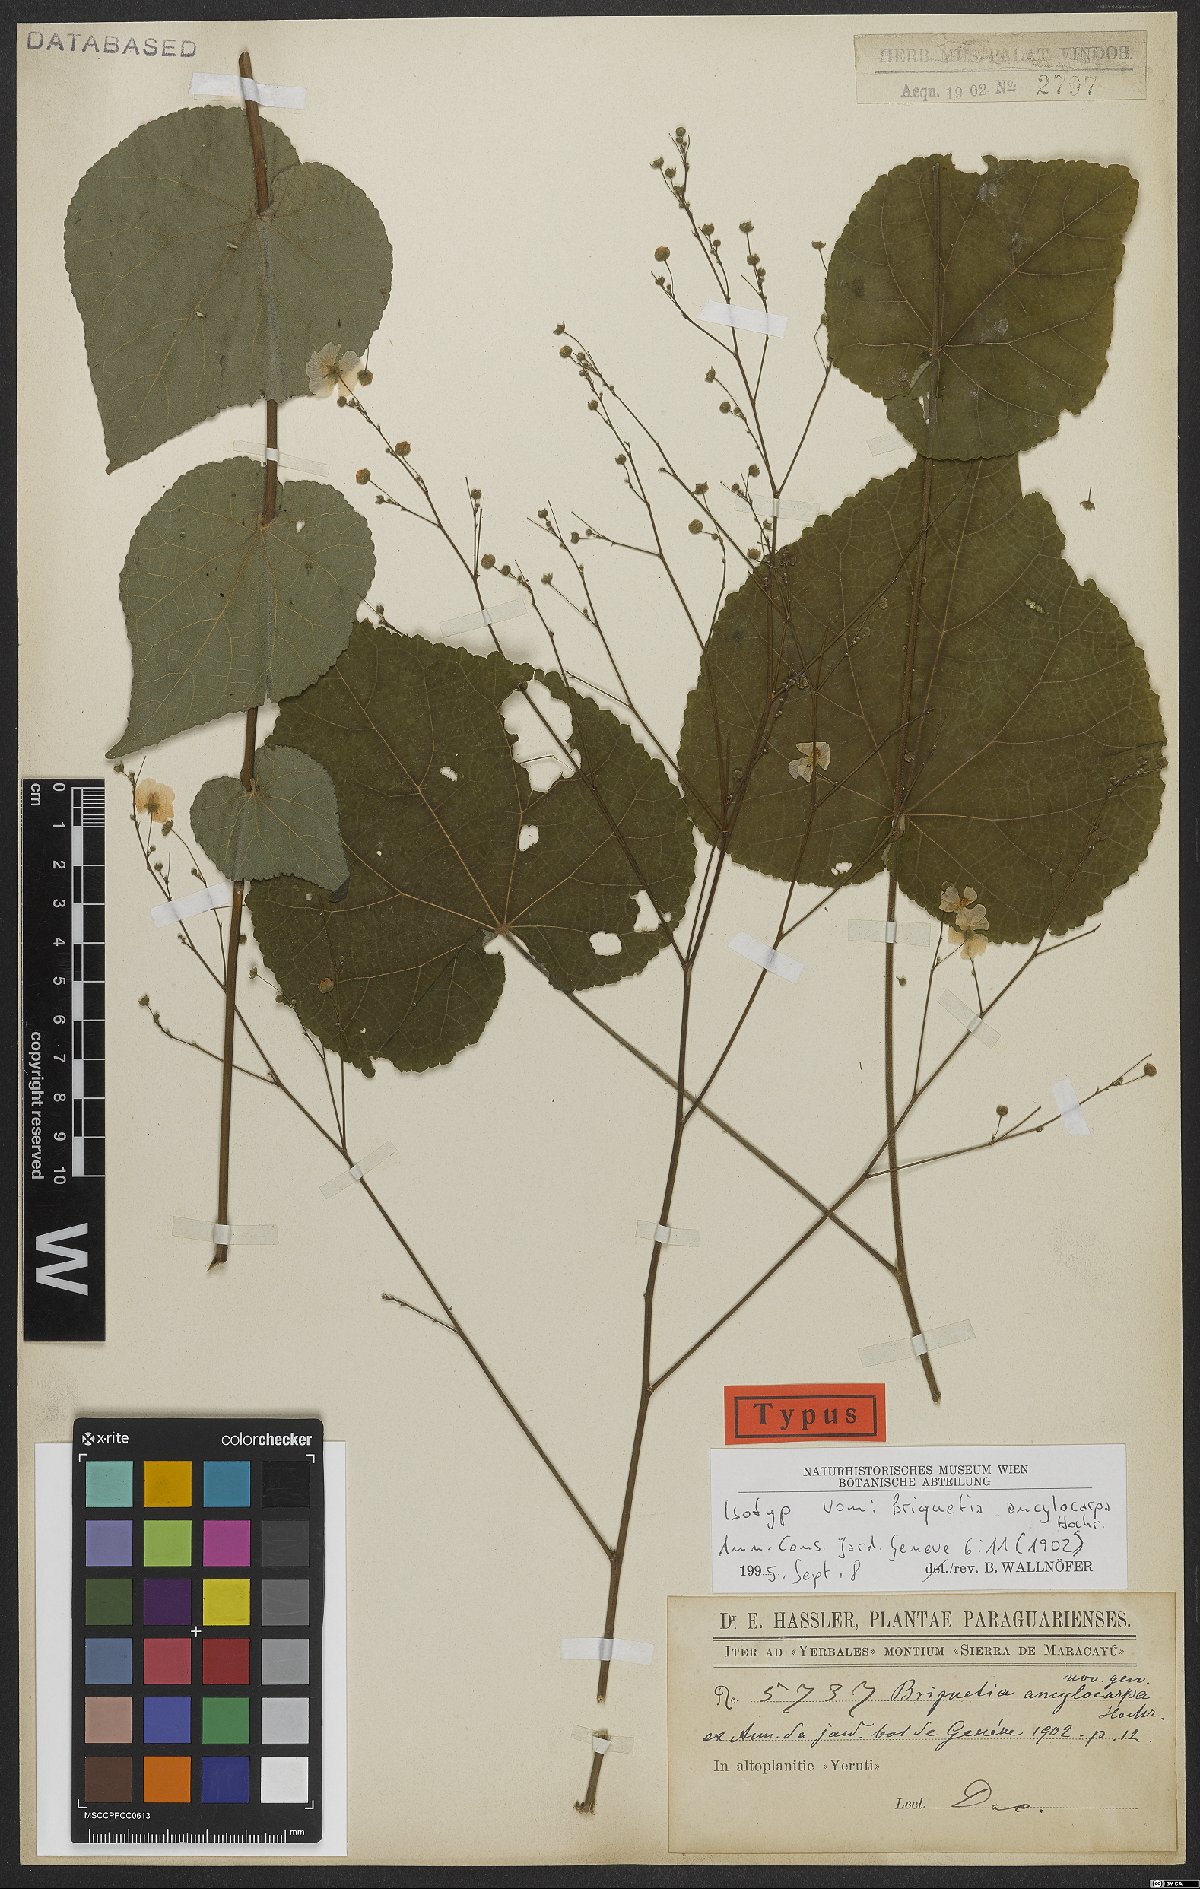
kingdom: Plantae
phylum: Tracheophyta
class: Magnoliopsida
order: Malvales
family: Malvaceae
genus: Briquetia
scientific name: Briquetia denudata
